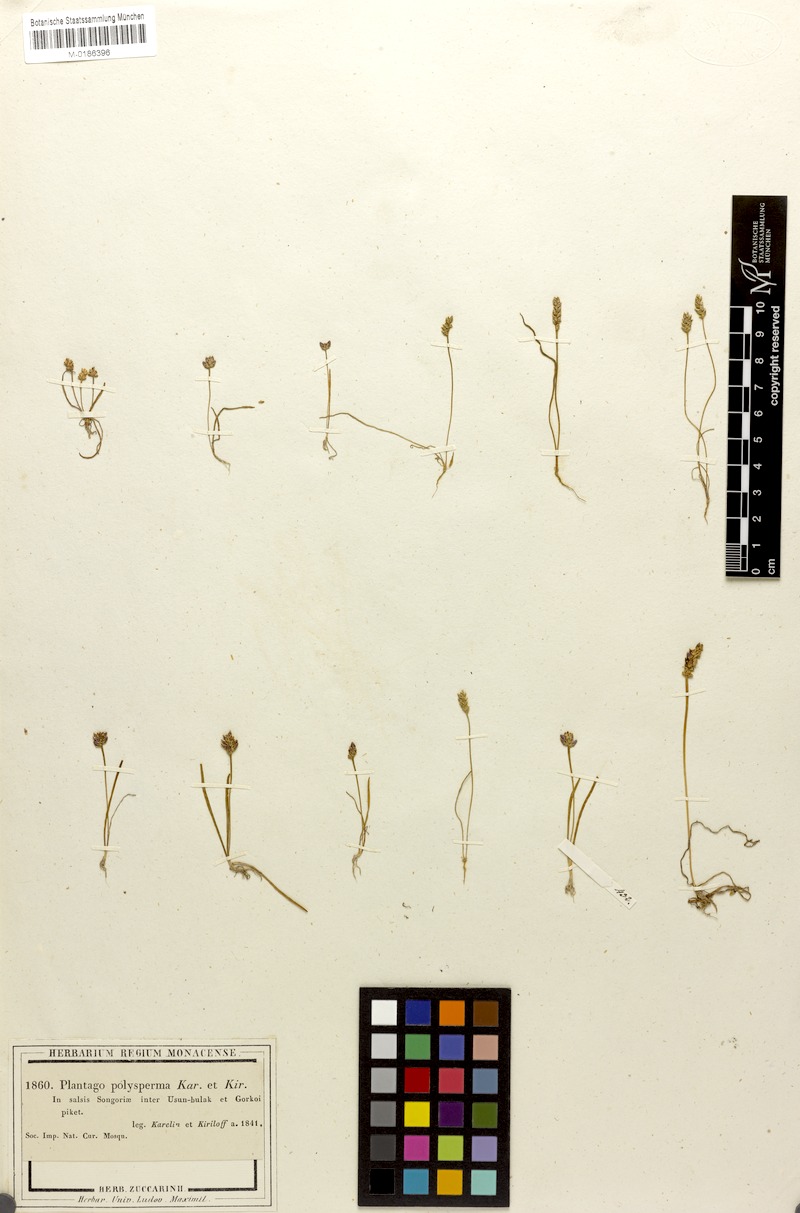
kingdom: Plantae
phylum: Tracheophyta
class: Magnoliopsida
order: Lamiales
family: Plantaginaceae
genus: Plantago
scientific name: Plantago polysperma
